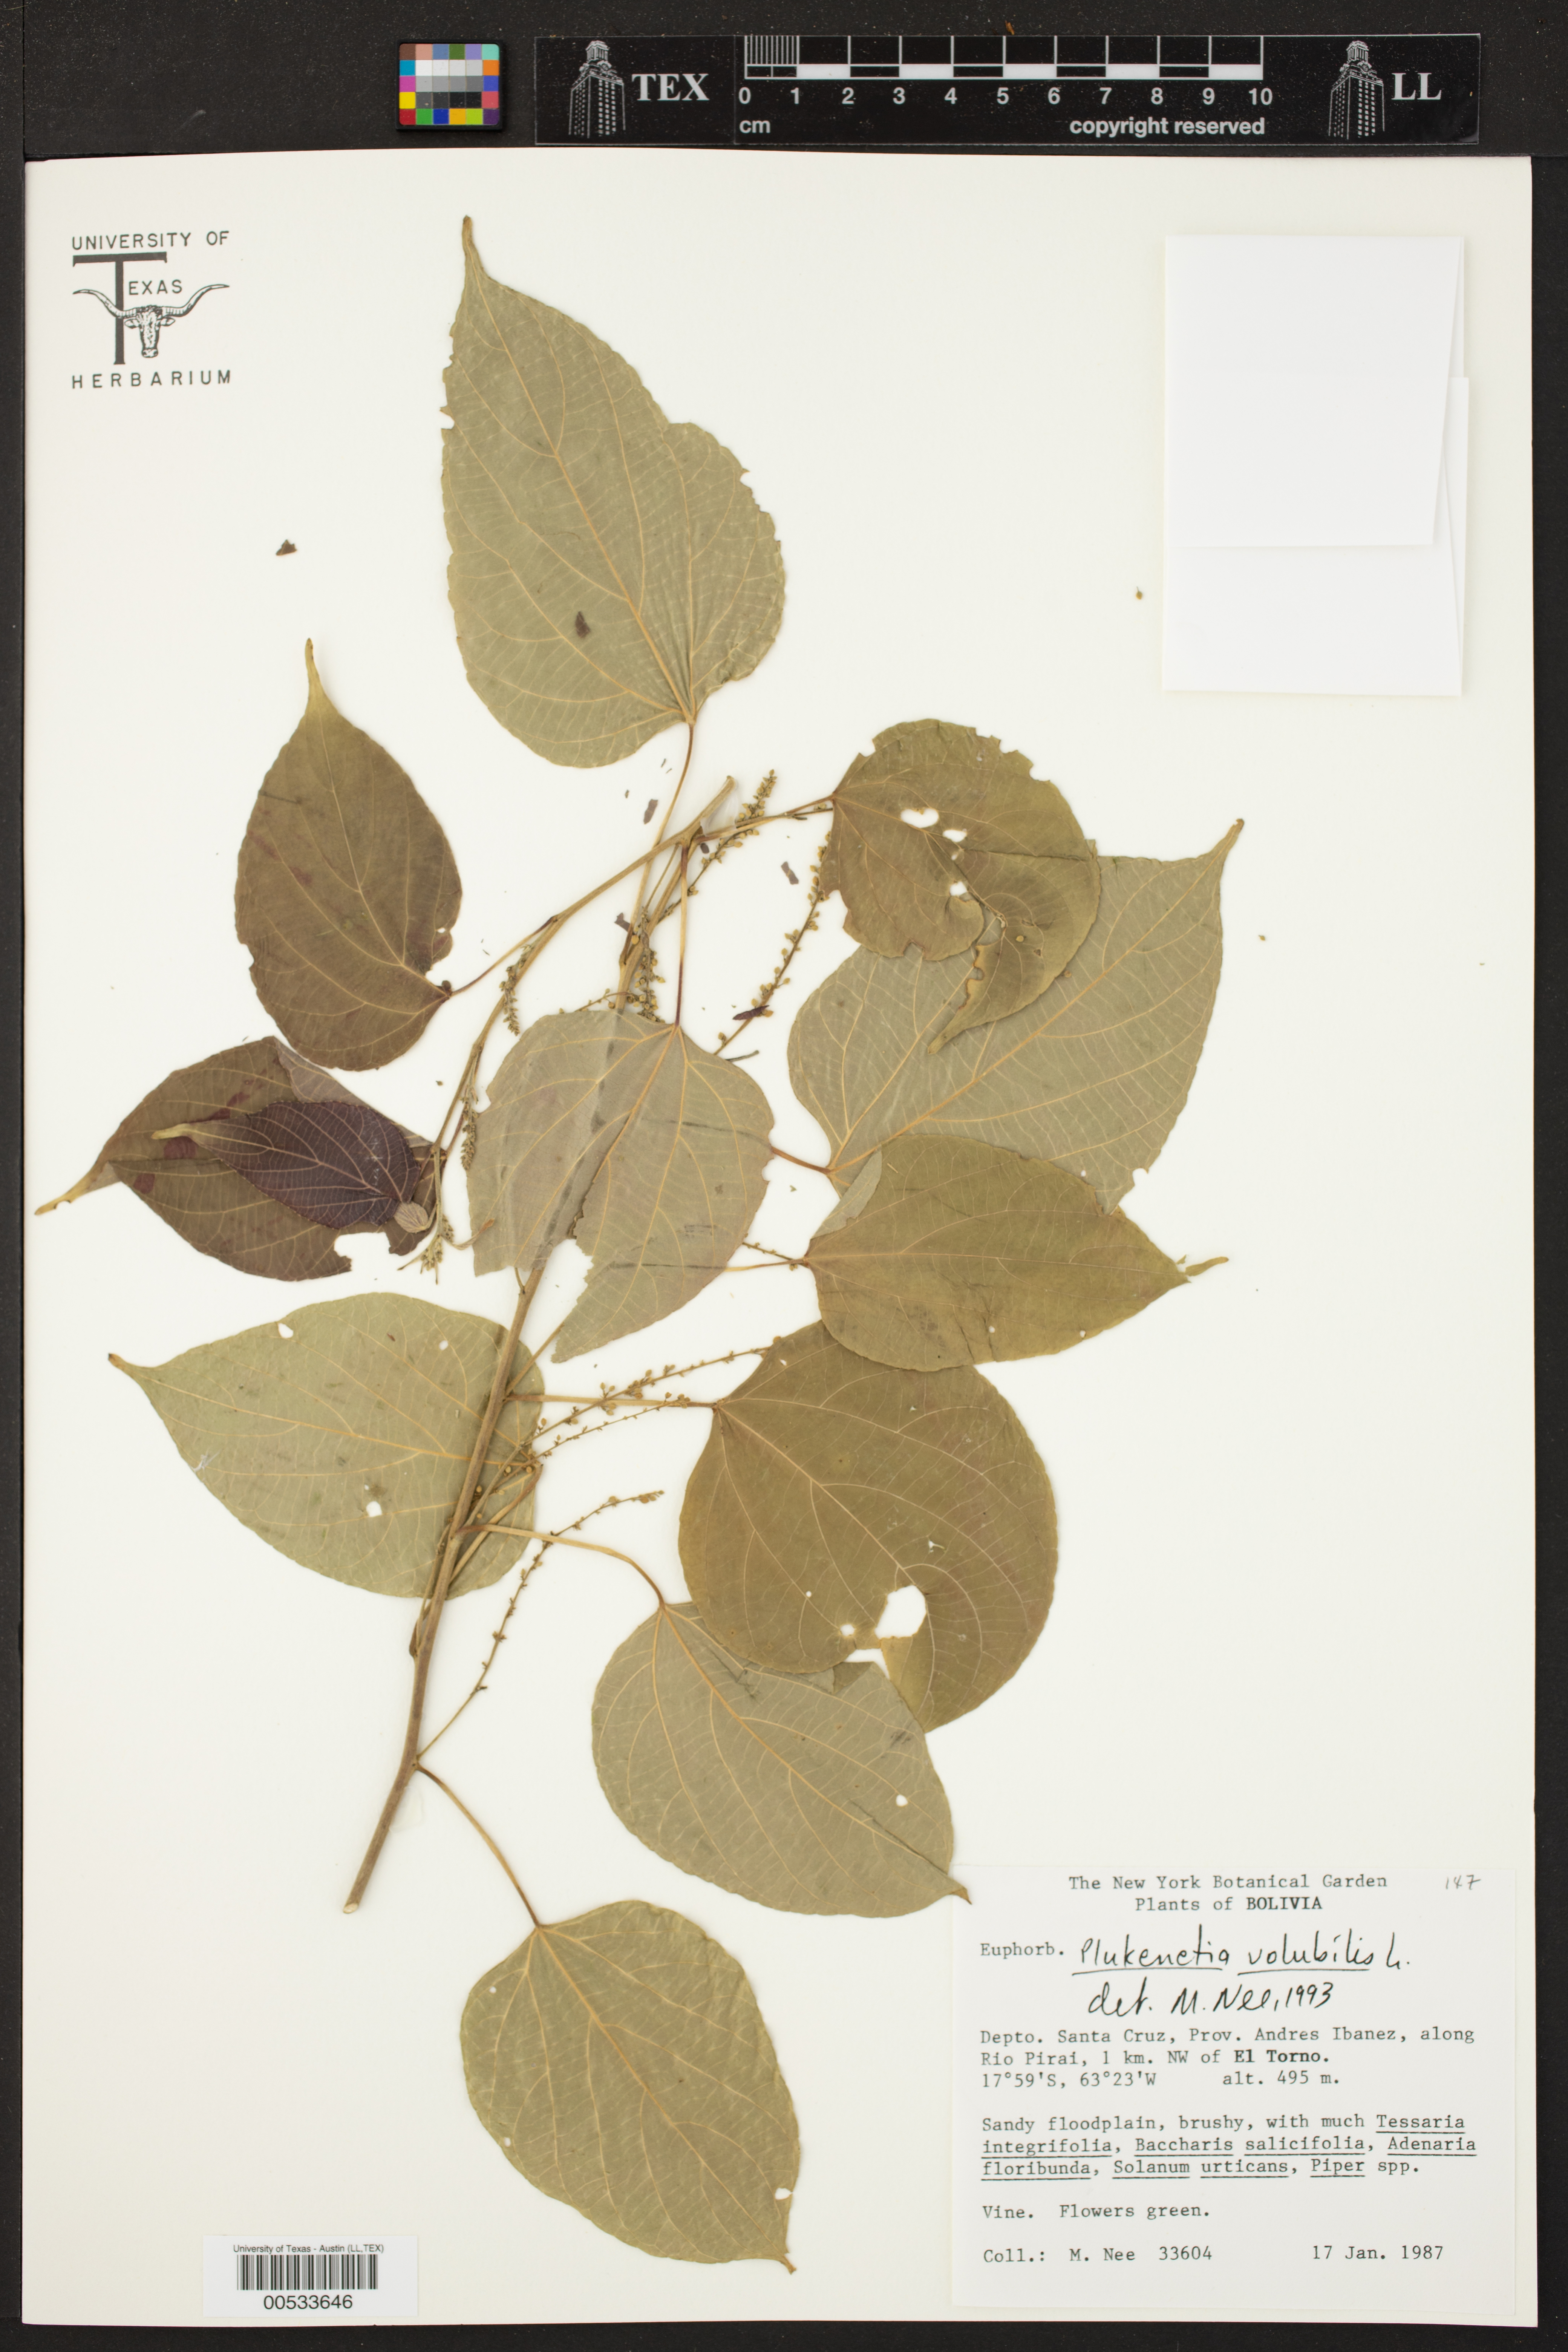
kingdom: Plantae
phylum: Tracheophyta
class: Magnoliopsida
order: Malpighiales
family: Euphorbiaceae
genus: Plukenetia
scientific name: Plukenetia volubilis
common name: Inca-peanut
